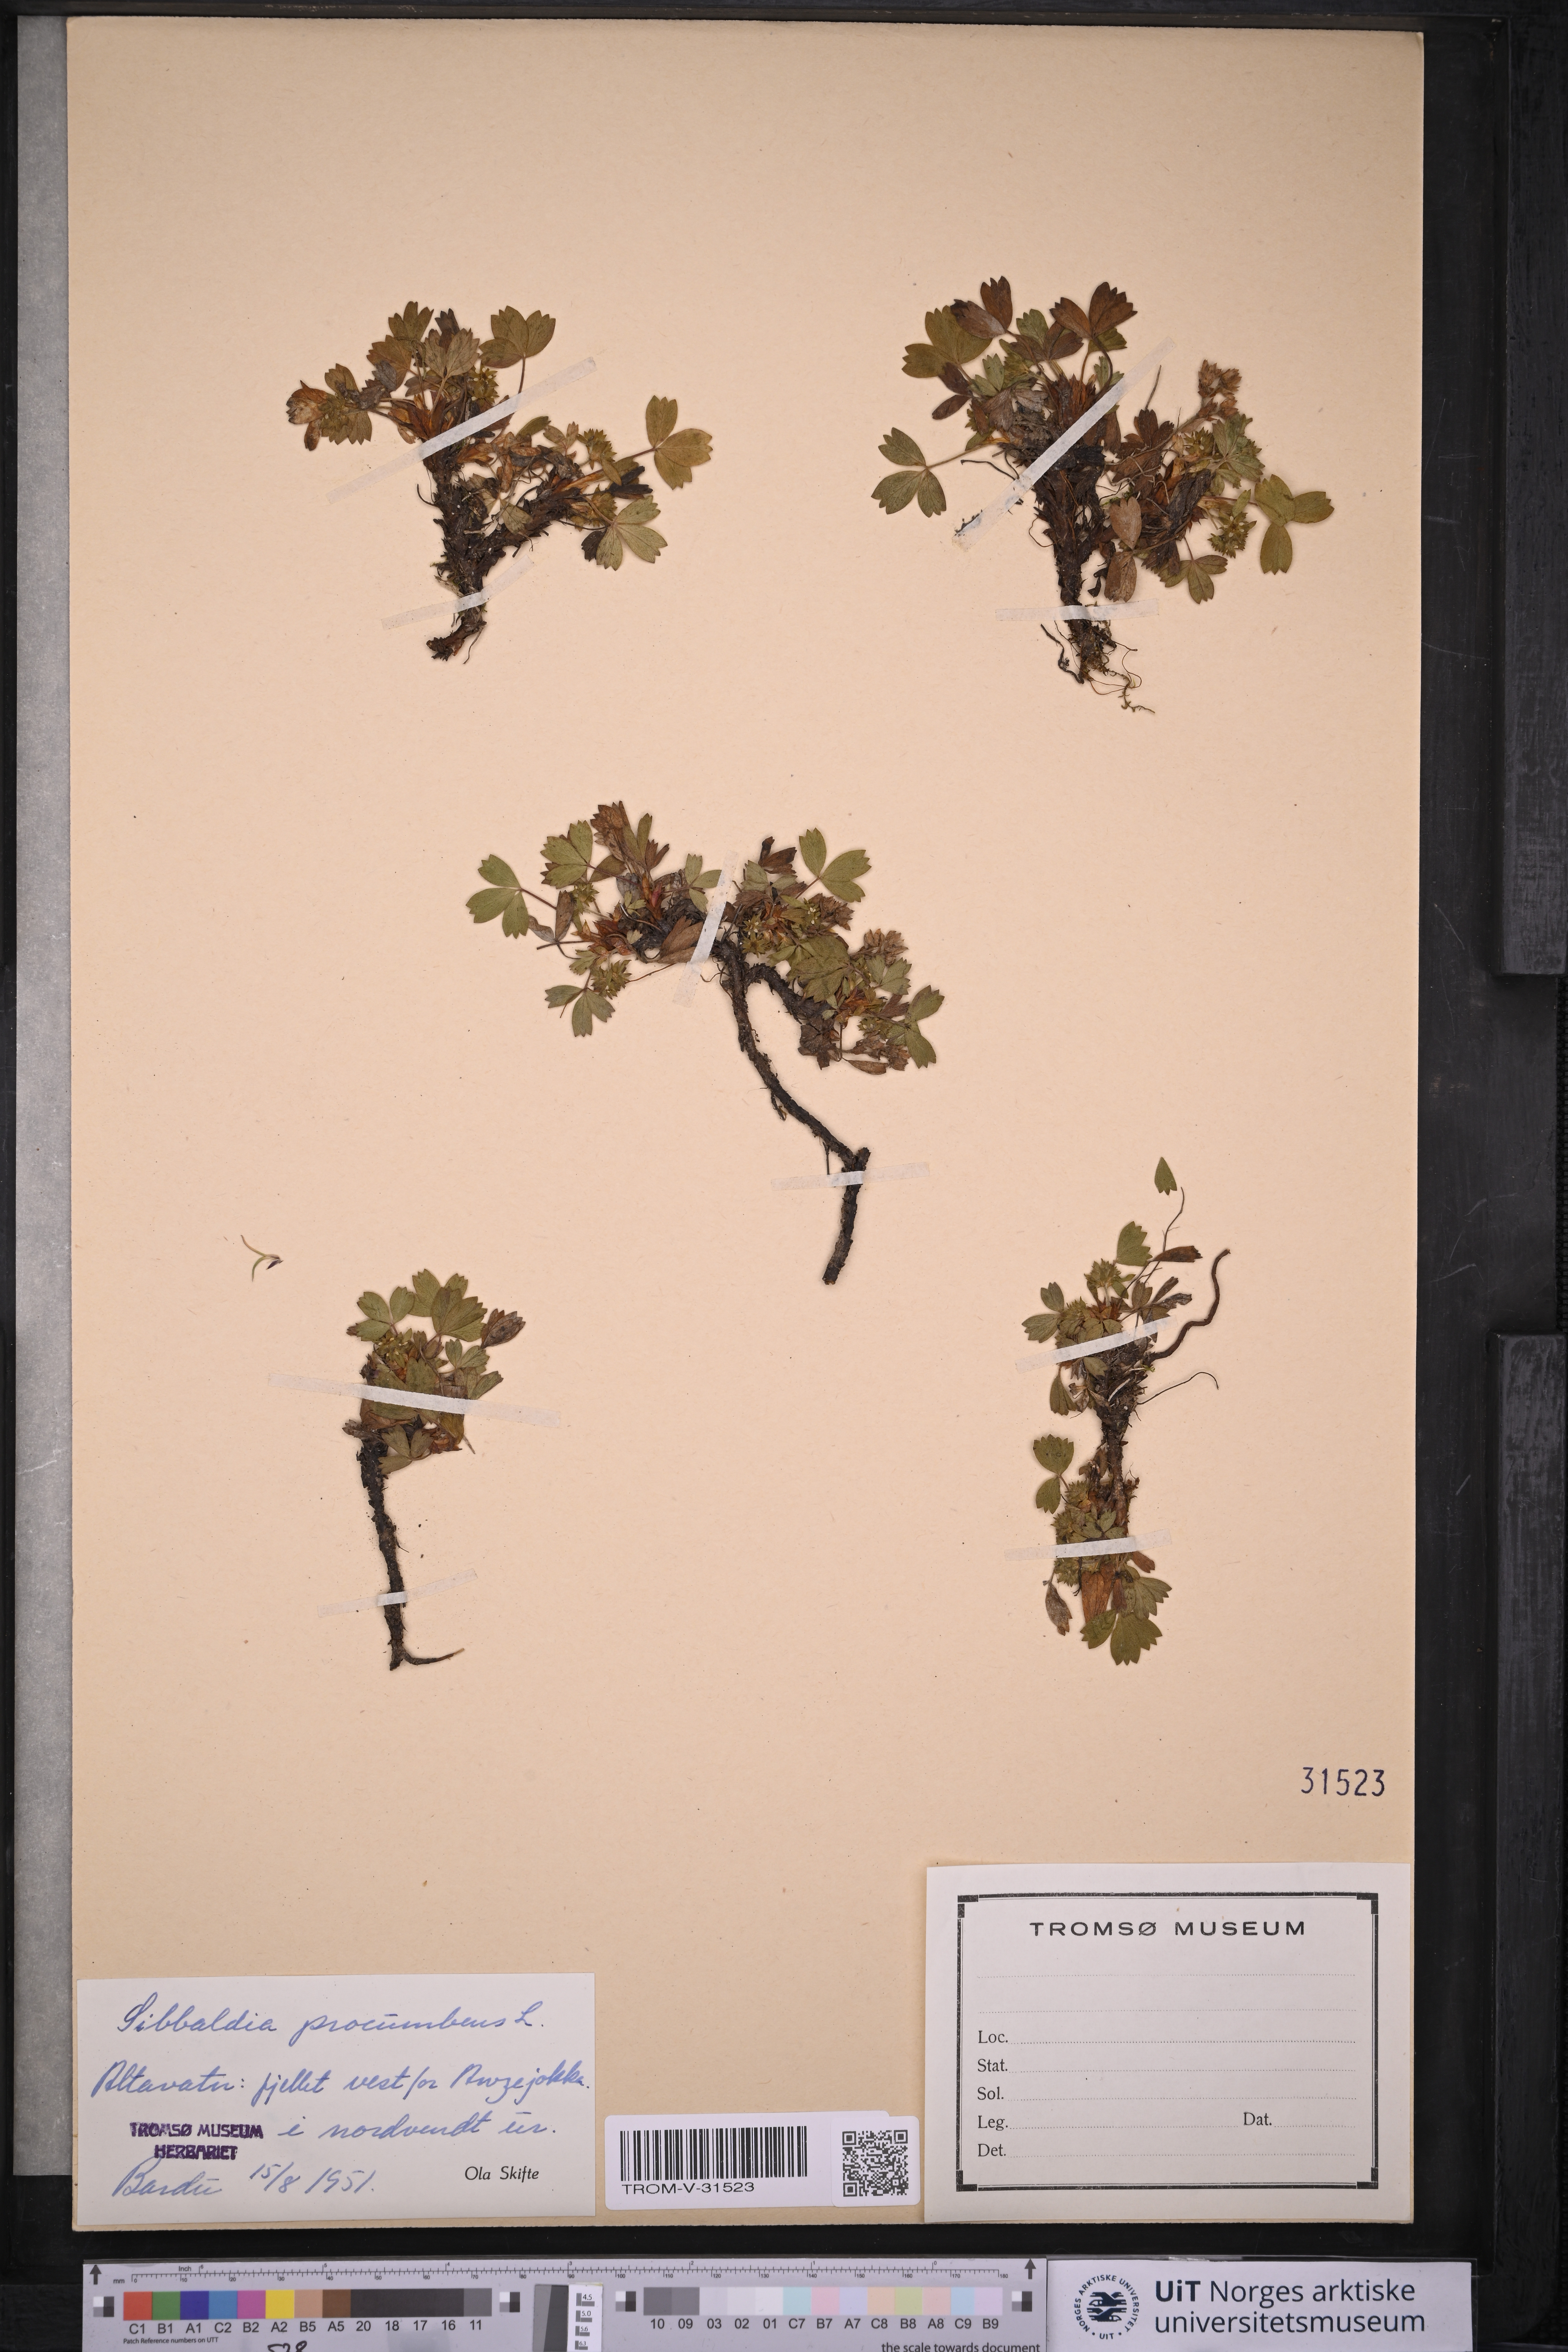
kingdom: Plantae
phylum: Tracheophyta
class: Magnoliopsida
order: Rosales
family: Rosaceae
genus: Sibbaldia
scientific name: Sibbaldia procumbens
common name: Creeping sibbaldia
